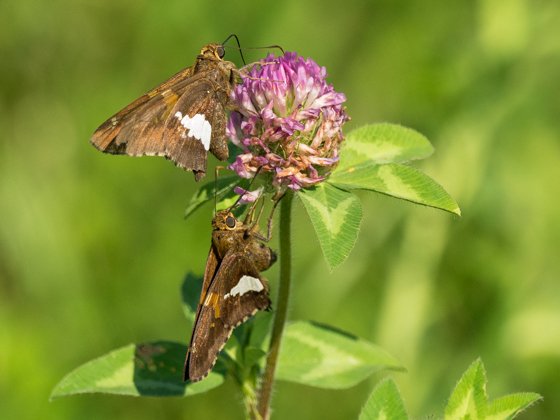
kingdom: Animalia
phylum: Arthropoda
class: Insecta
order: Lepidoptera
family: Hesperiidae
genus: Epargyreus
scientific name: Epargyreus clarus
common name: Silver-spotted Skipper
